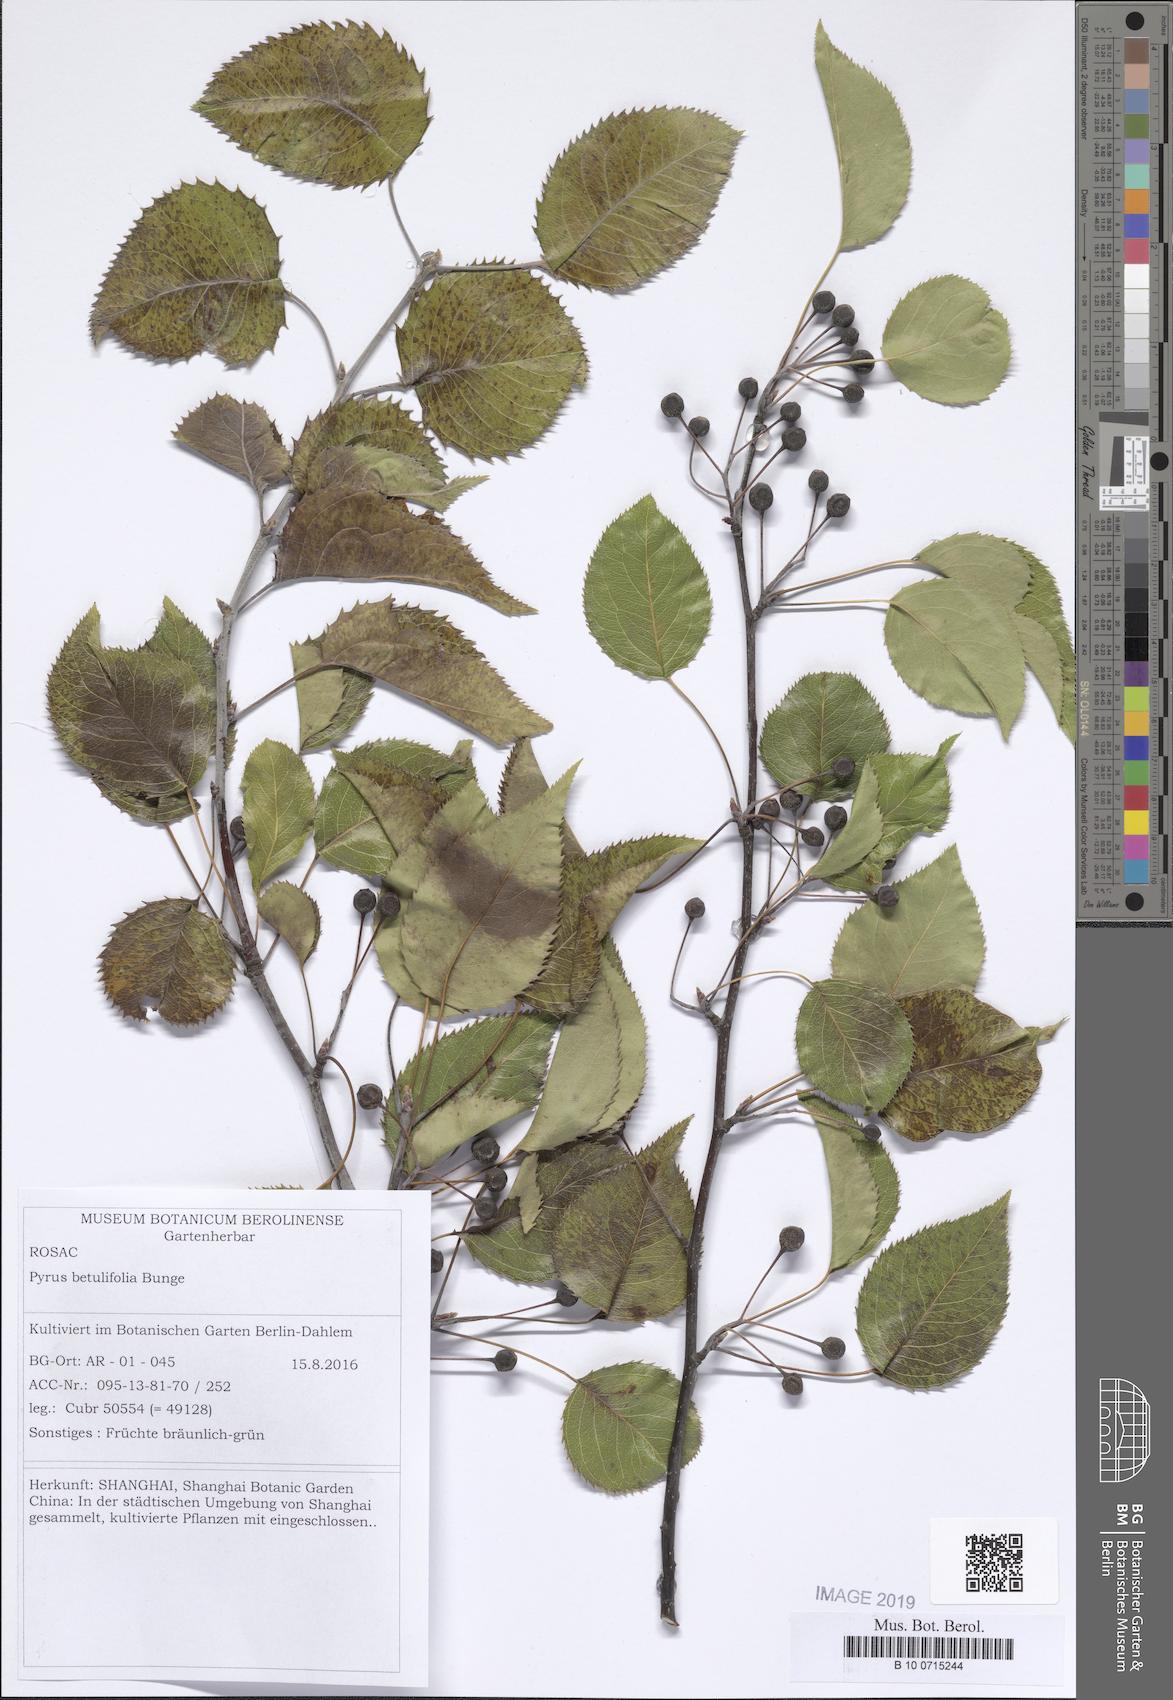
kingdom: Plantae
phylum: Tracheophyta
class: Magnoliopsida
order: Rosales
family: Rosaceae
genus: Pyrus
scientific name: Pyrus betulifolia
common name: Birch-leaf pear
